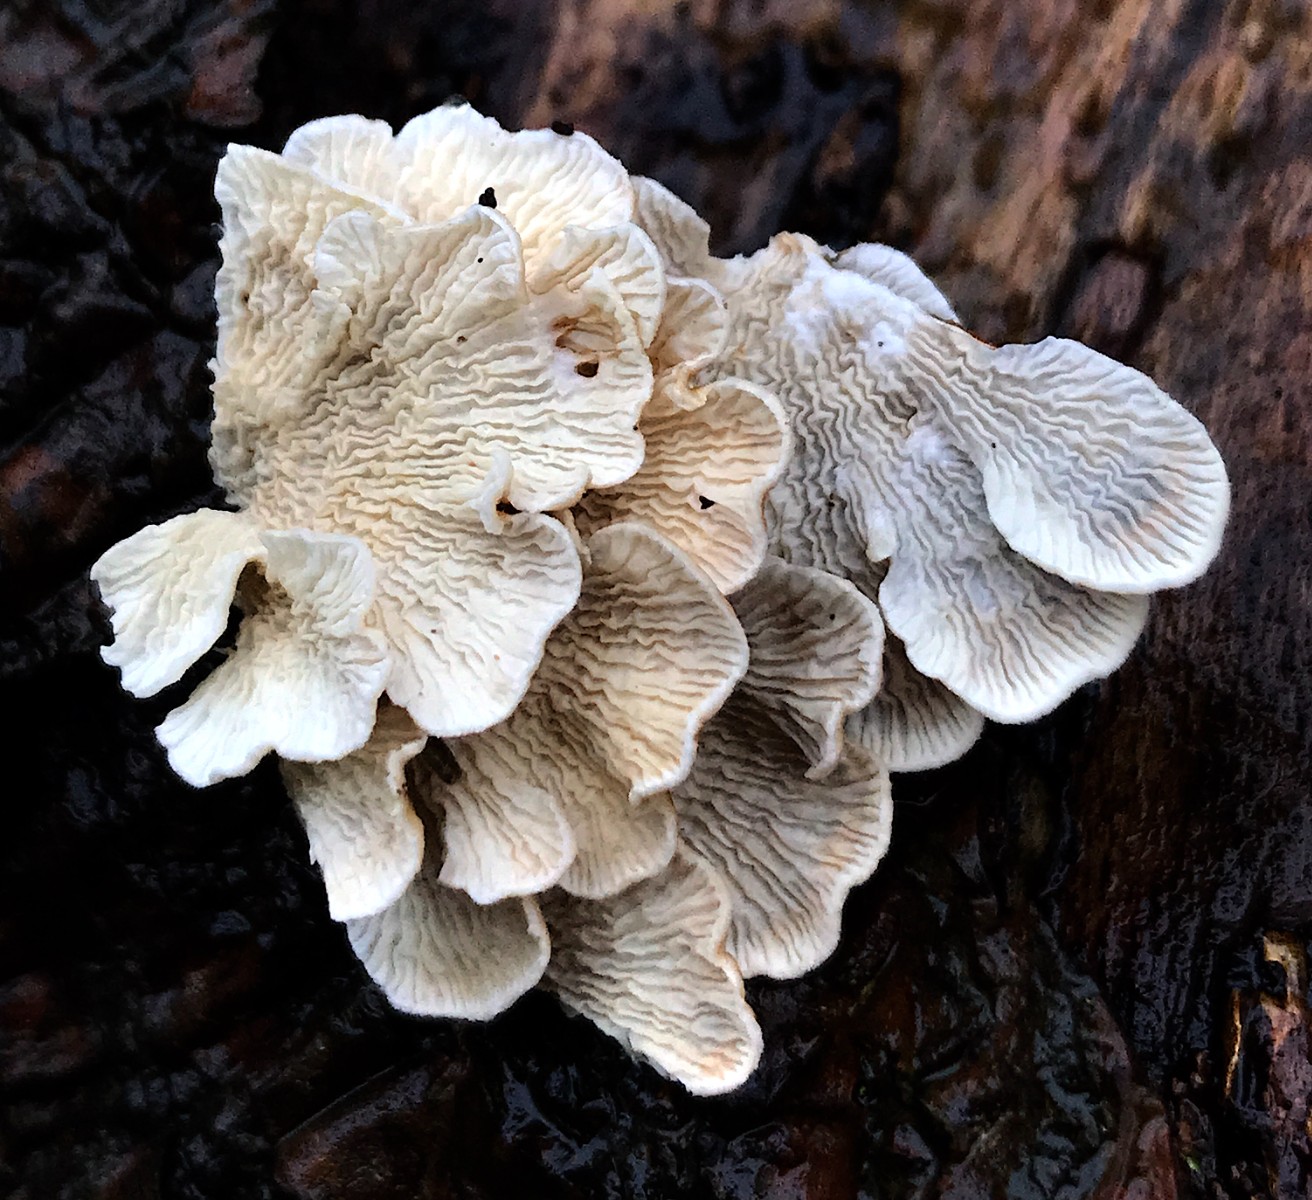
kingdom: Fungi
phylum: Basidiomycota
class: Agaricomycetes
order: Amylocorticiales
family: Amylocorticiaceae
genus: Plicaturopsis
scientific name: Plicaturopsis crispa
